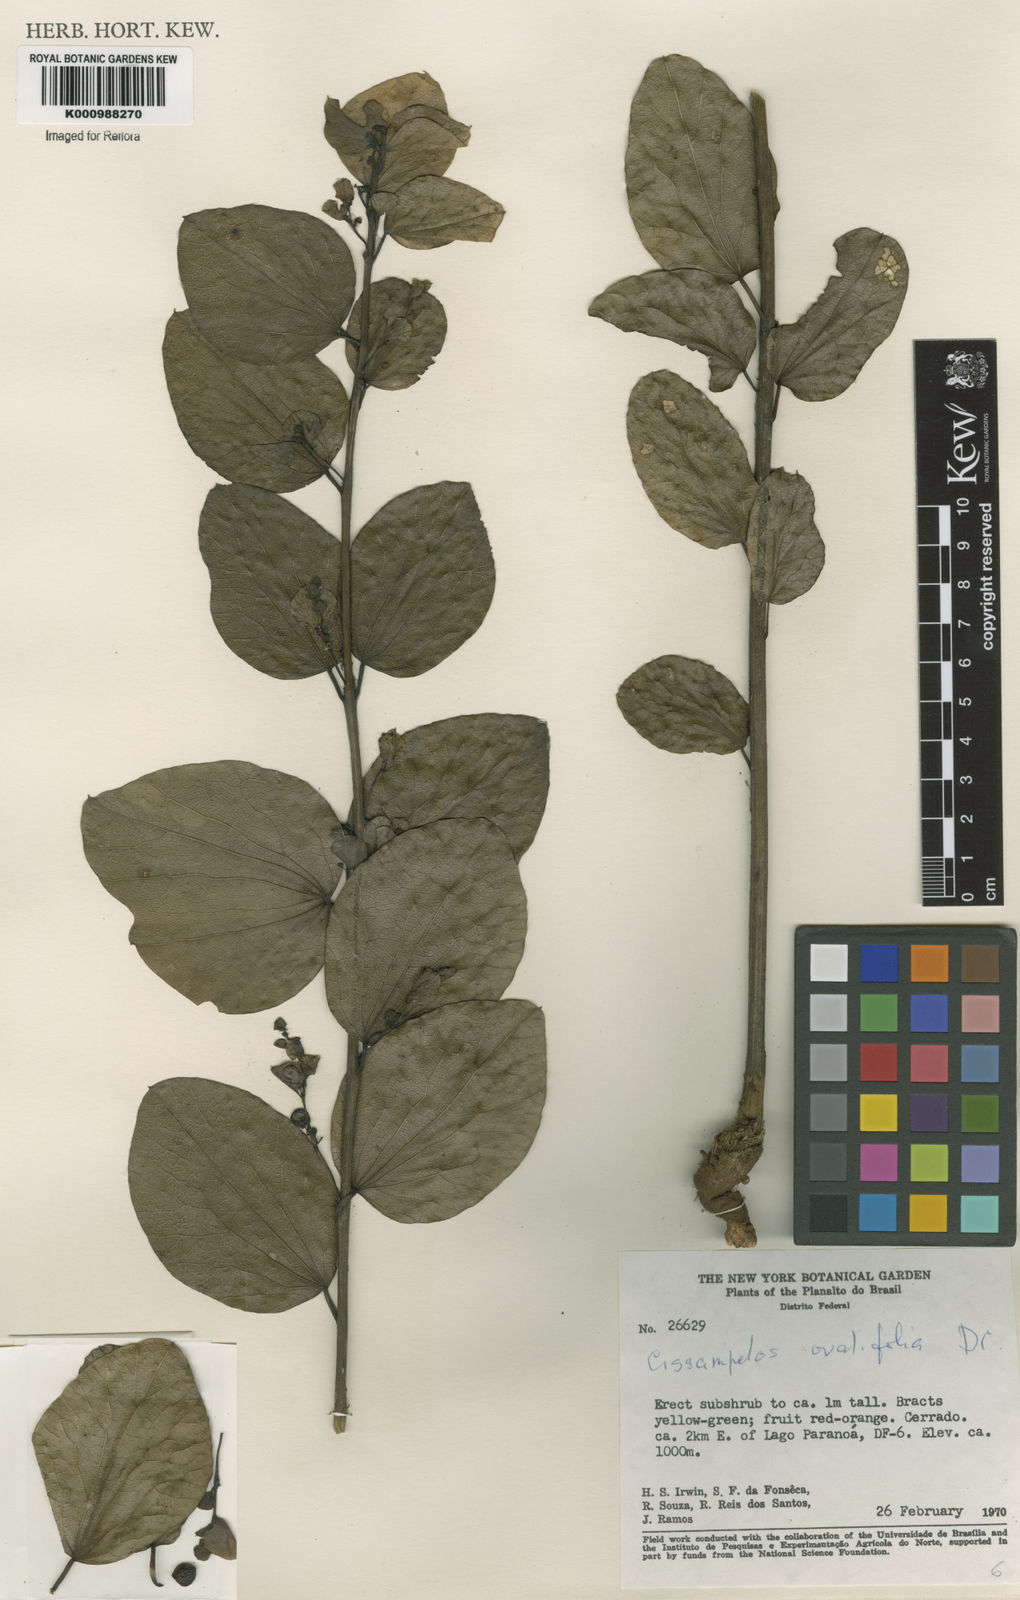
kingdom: Plantae
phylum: Tracheophyta
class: Magnoliopsida
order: Ranunculales
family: Menispermaceae
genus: Cissampelos
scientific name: Cissampelos ovalifolia
